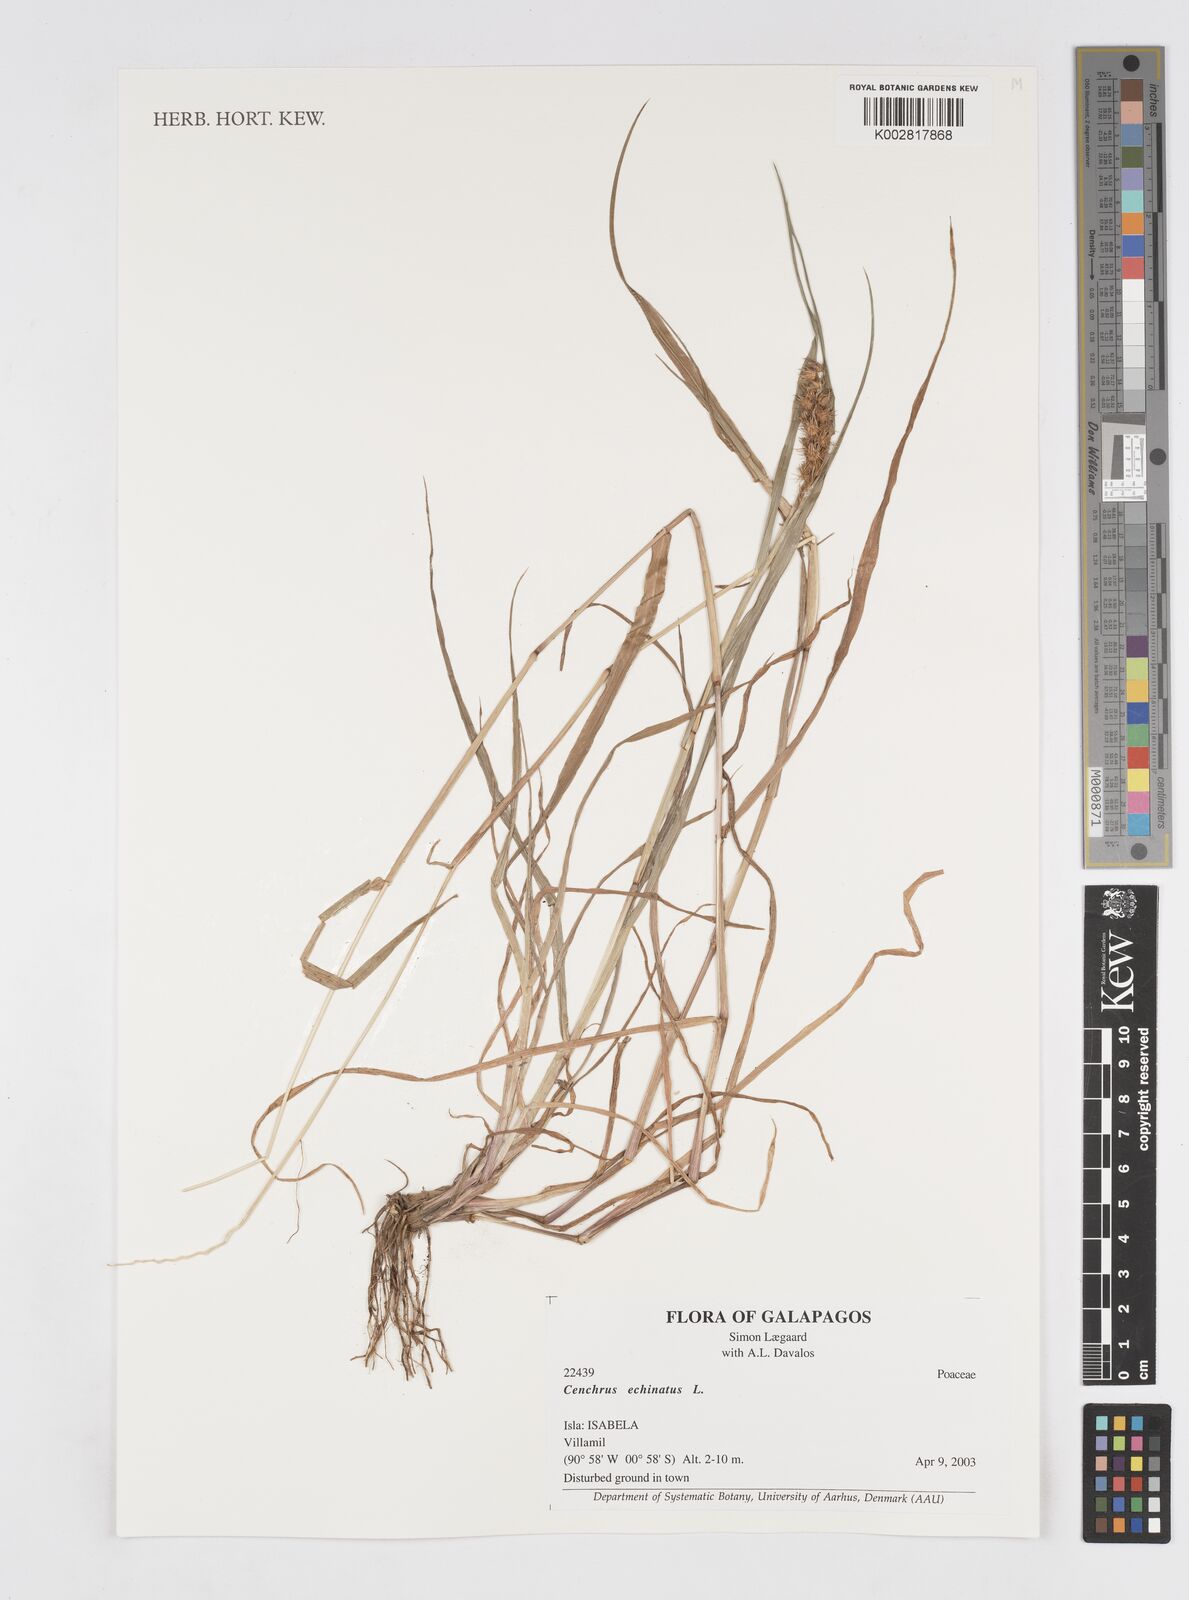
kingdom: Plantae
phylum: Tracheophyta
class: Liliopsida
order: Poales
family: Poaceae
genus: Cenchrus
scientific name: Cenchrus
